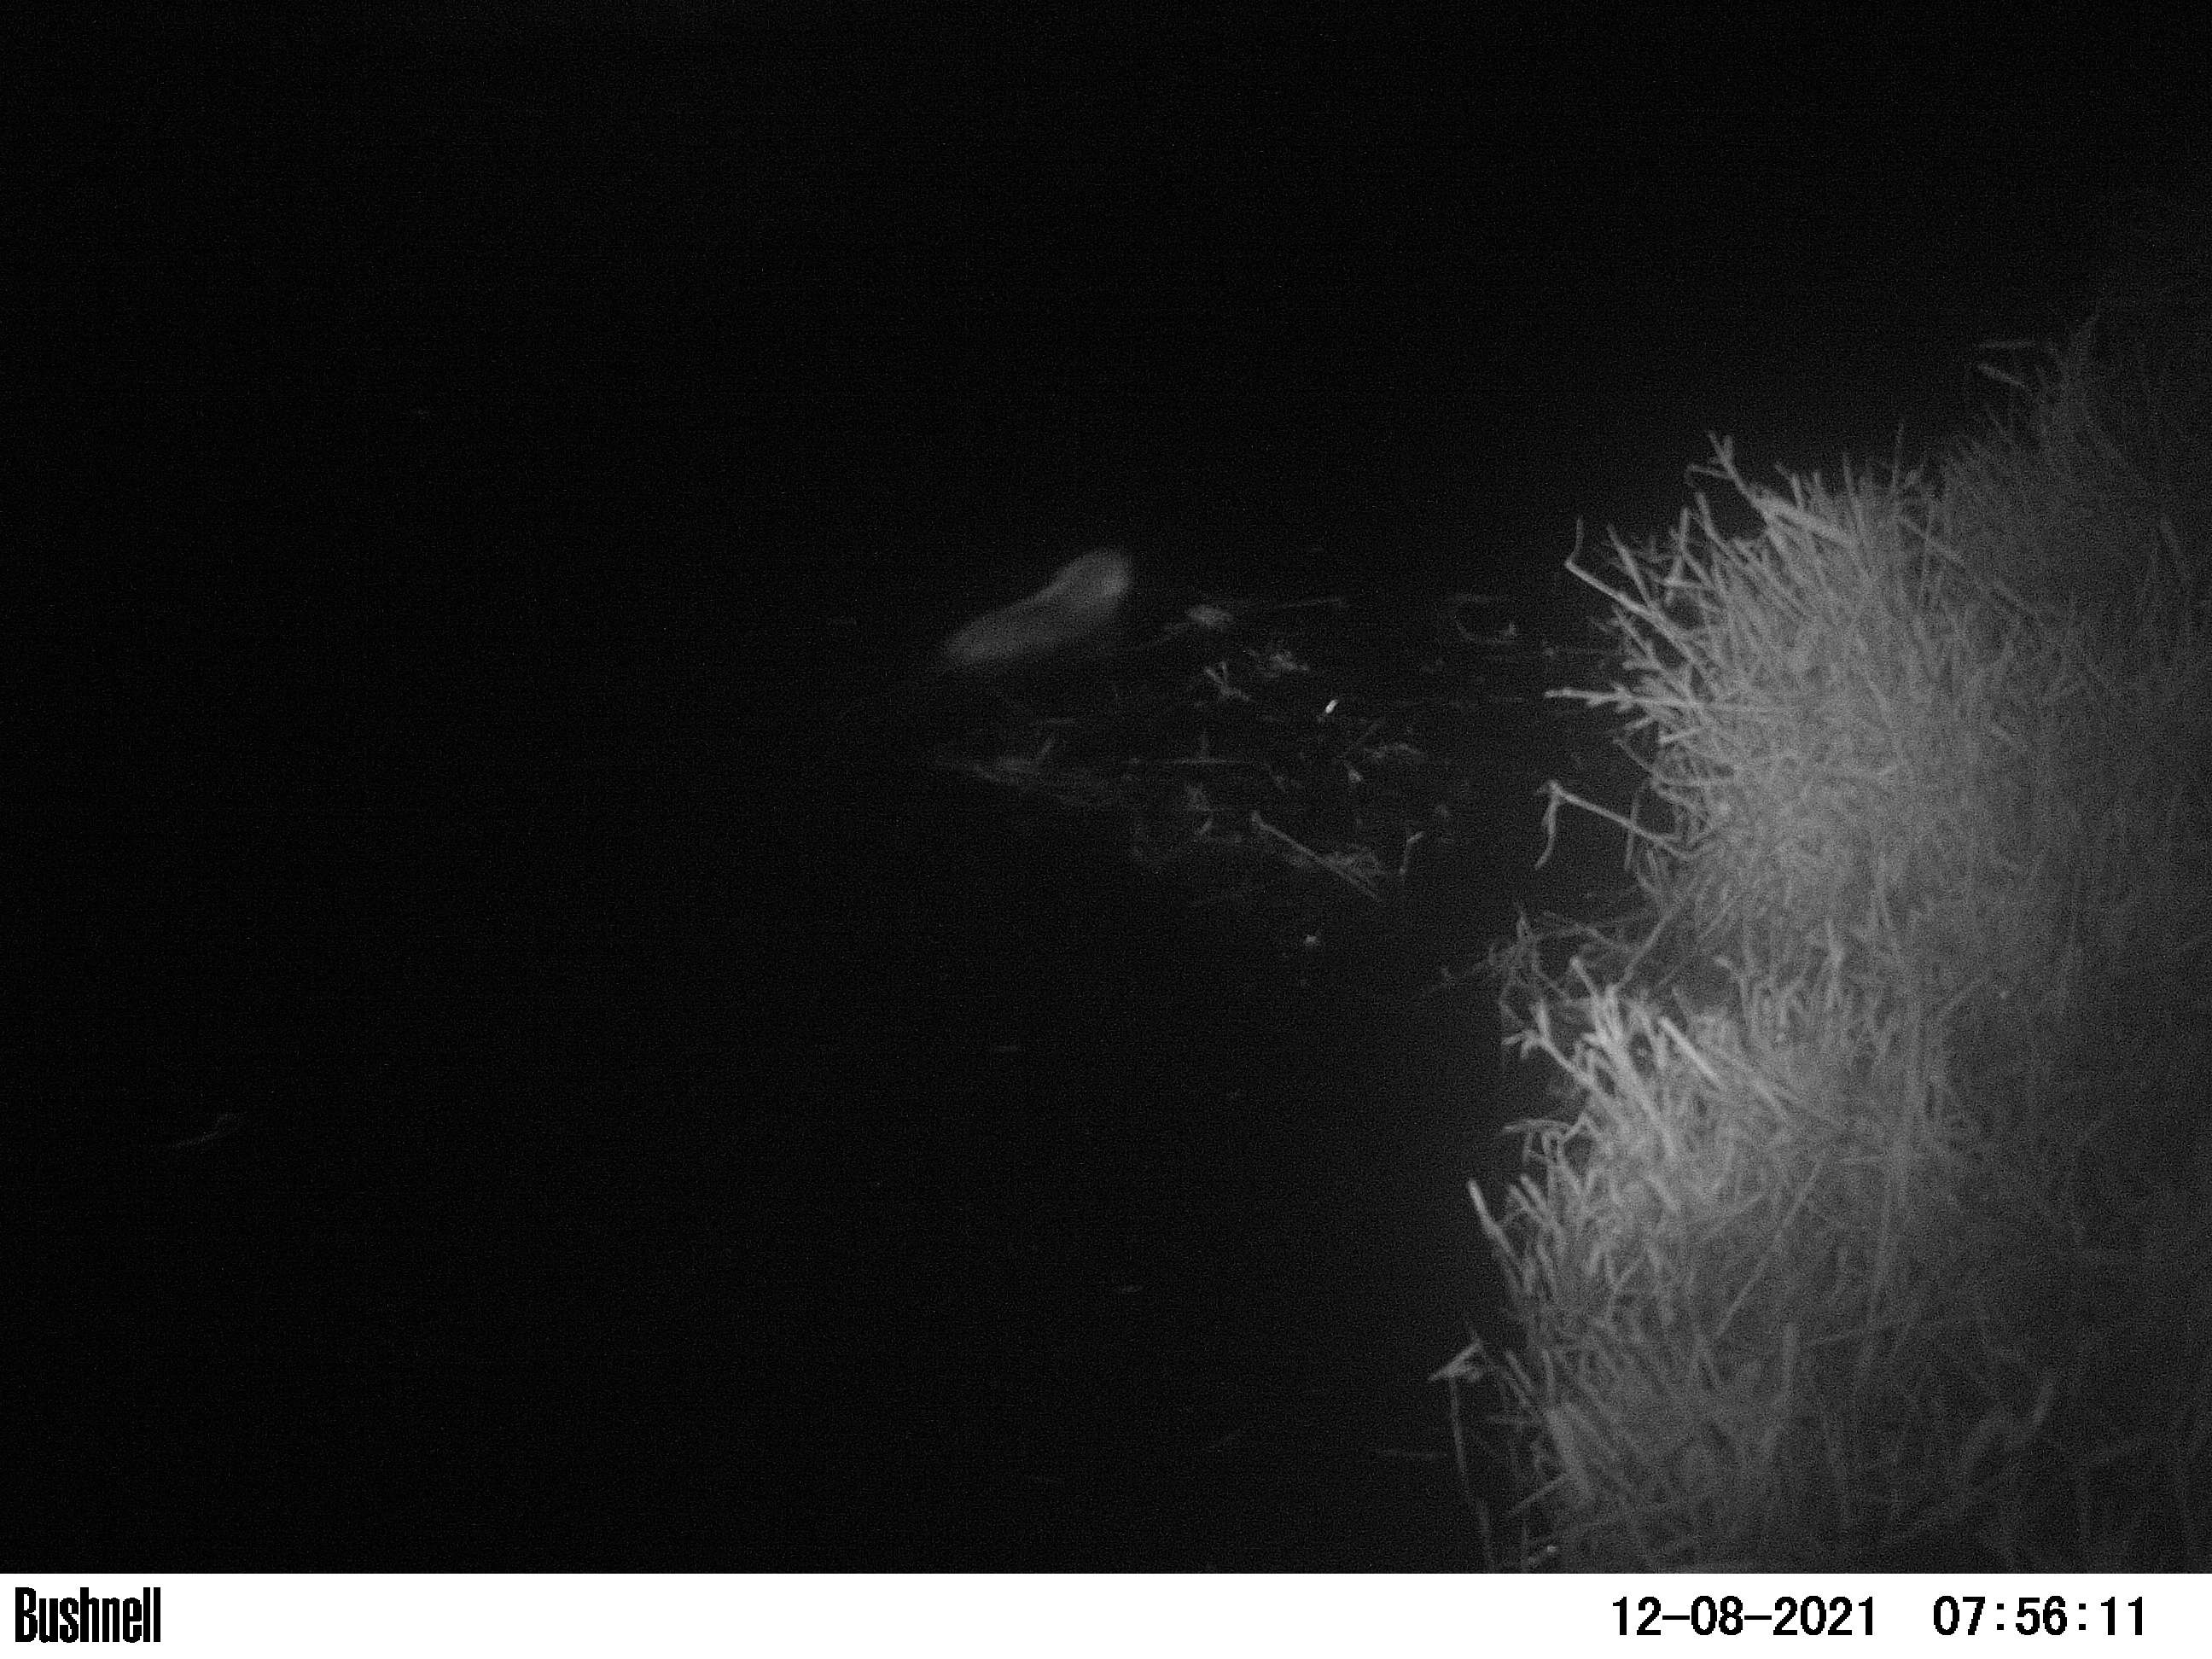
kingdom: Animalia
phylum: Chordata
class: Mammalia
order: Rodentia
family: Muridae
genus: Rattus
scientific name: Rattus norvegicus
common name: Brown rat
